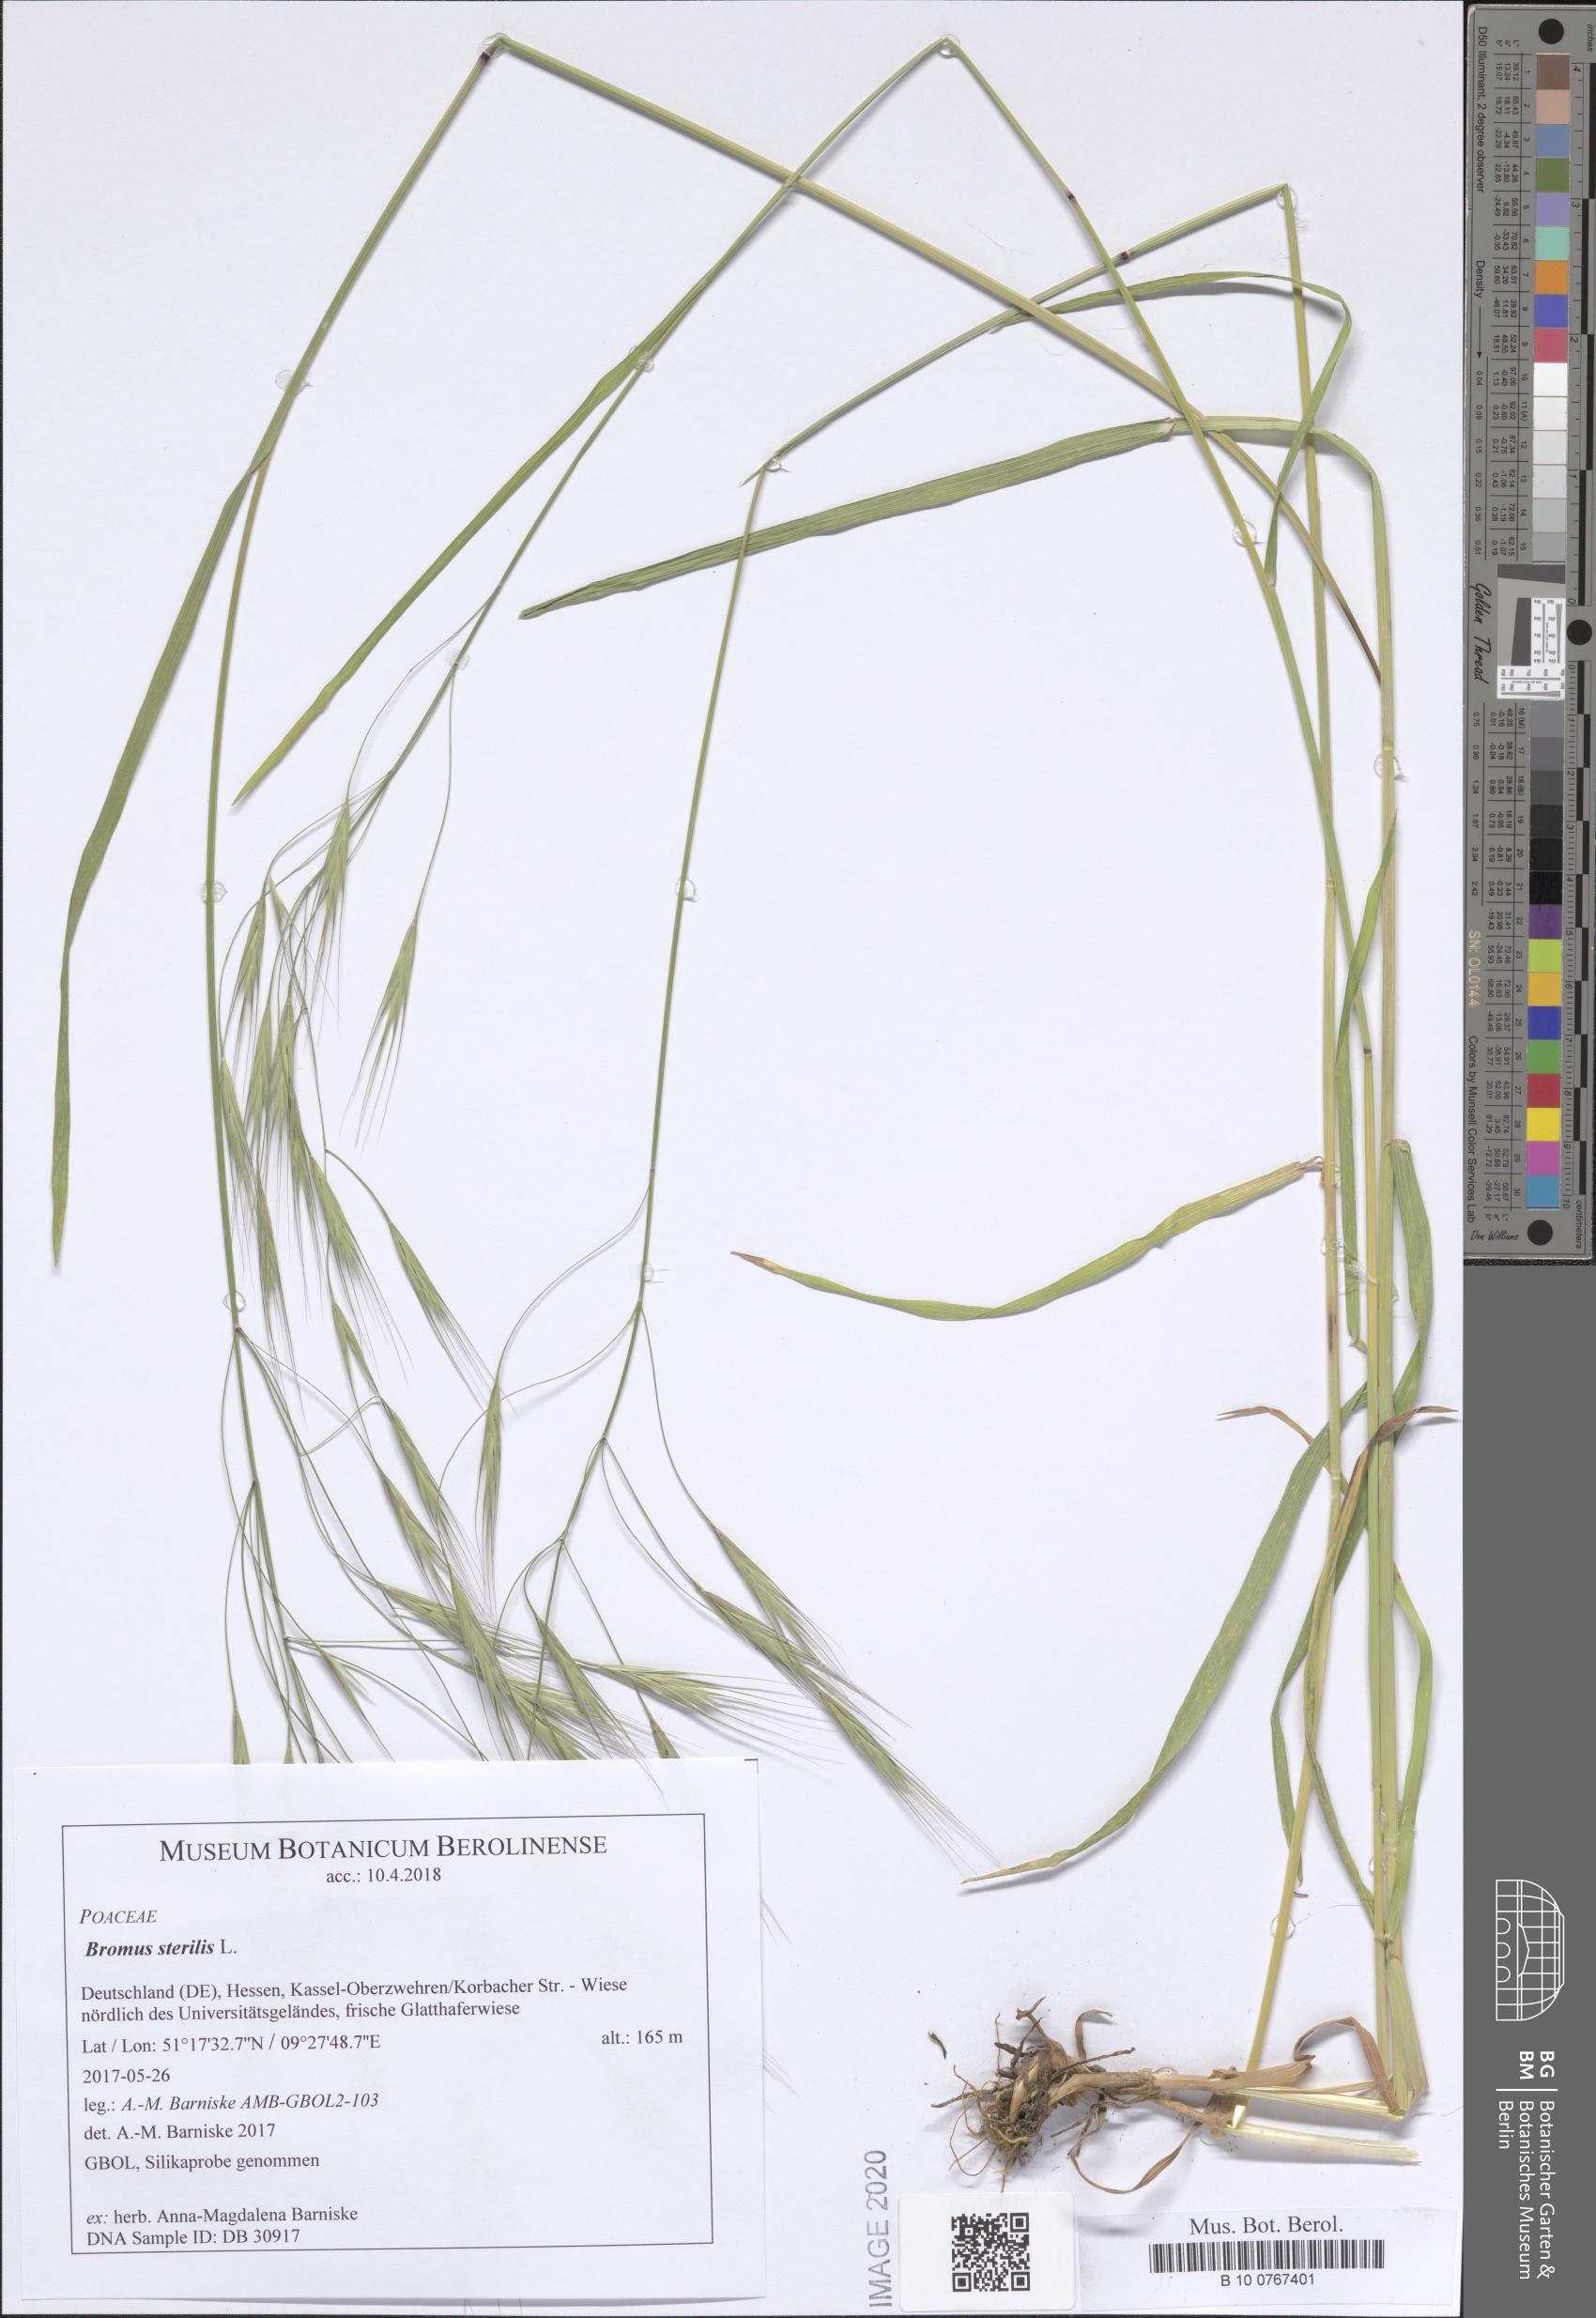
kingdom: Plantae
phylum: Tracheophyta
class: Liliopsida
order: Poales
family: Poaceae
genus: Bromus
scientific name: Bromus sterilis
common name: Poverty brome
